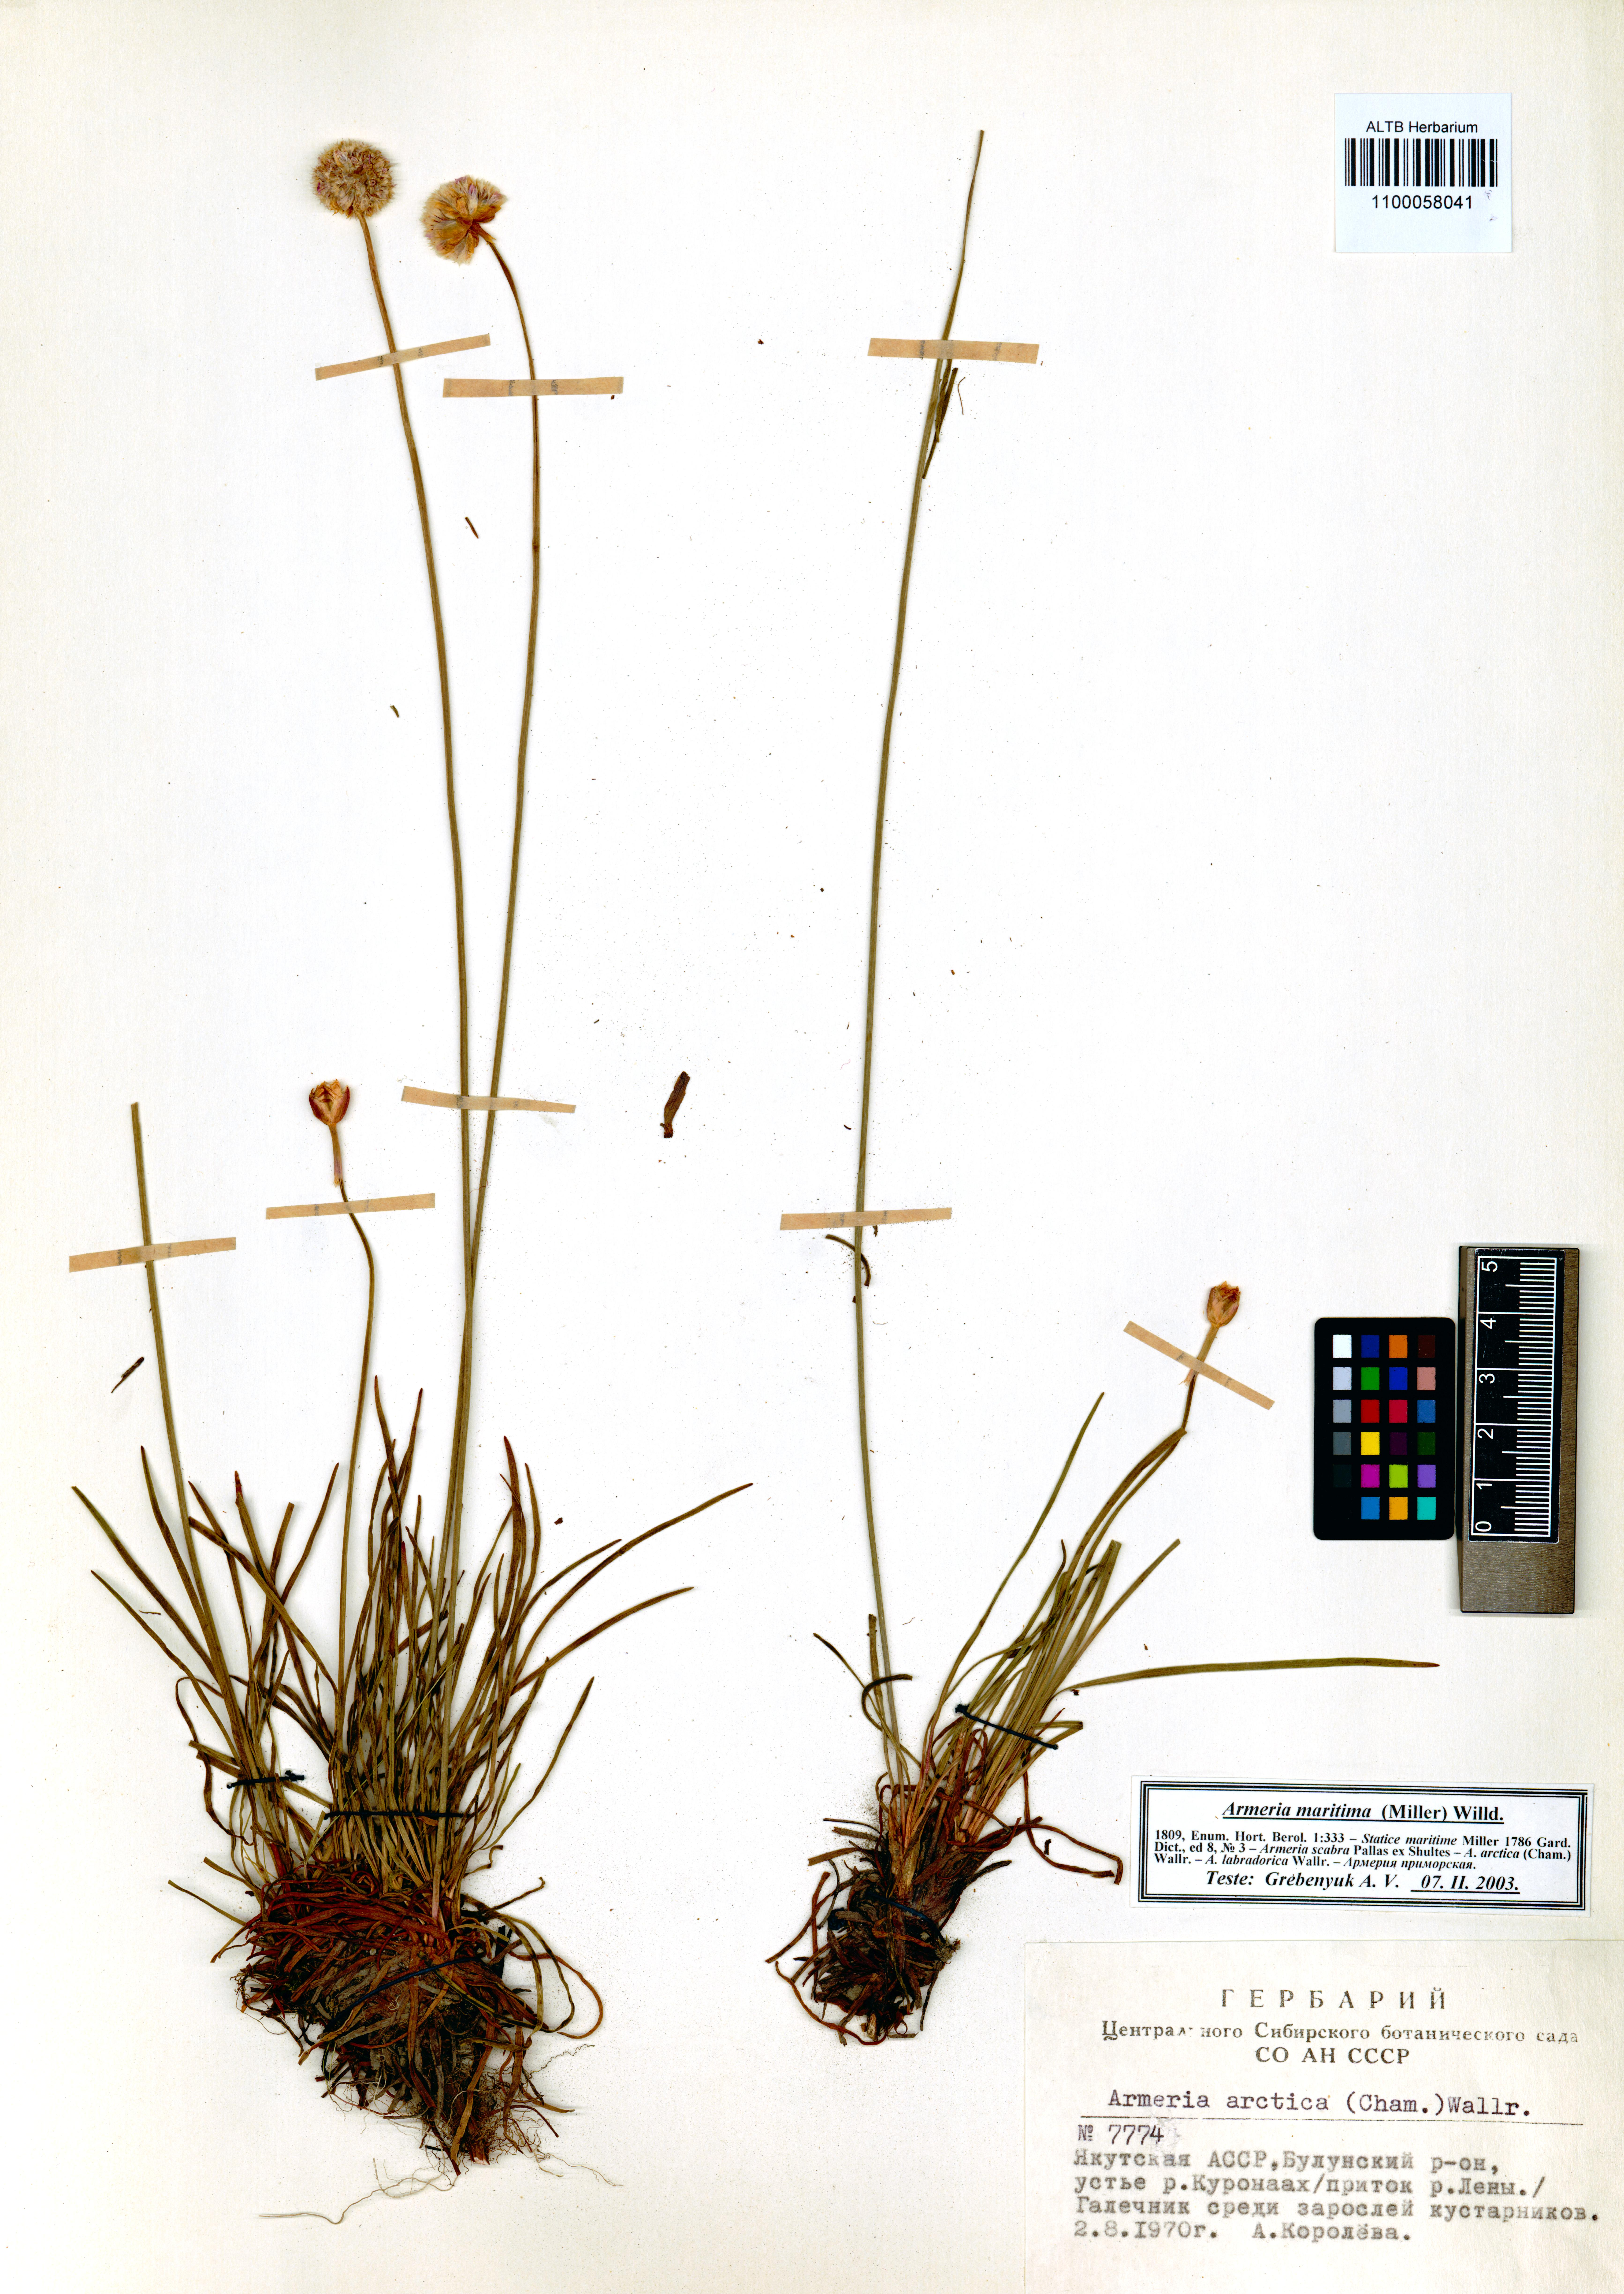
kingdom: Plantae
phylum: Tracheophyta
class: Magnoliopsida
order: Caryophyllales
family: Plumbaginaceae
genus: Armeria
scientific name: Armeria maritima
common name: Thrift
